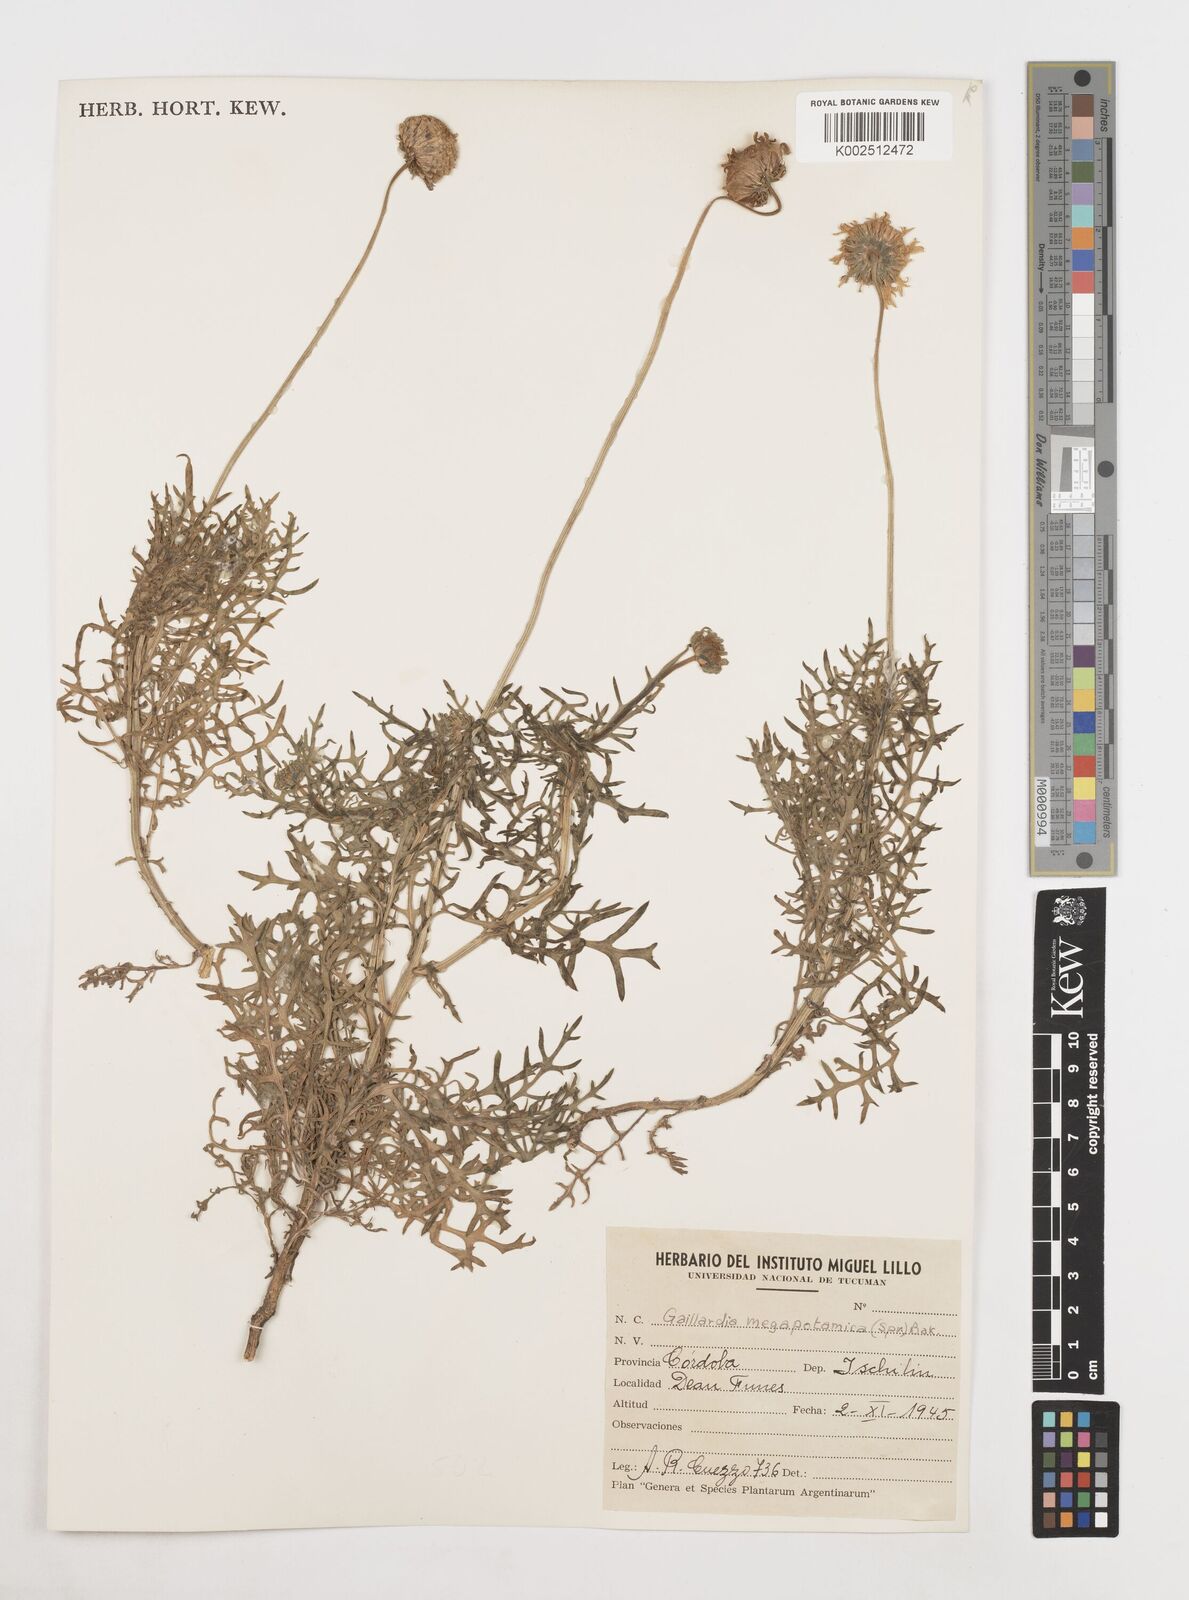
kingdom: Plantae
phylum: Tracheophyta
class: Magnoliopsida
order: Asterales
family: Asteraceae
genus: Gaillardia
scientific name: Gaillardia megapotamica
